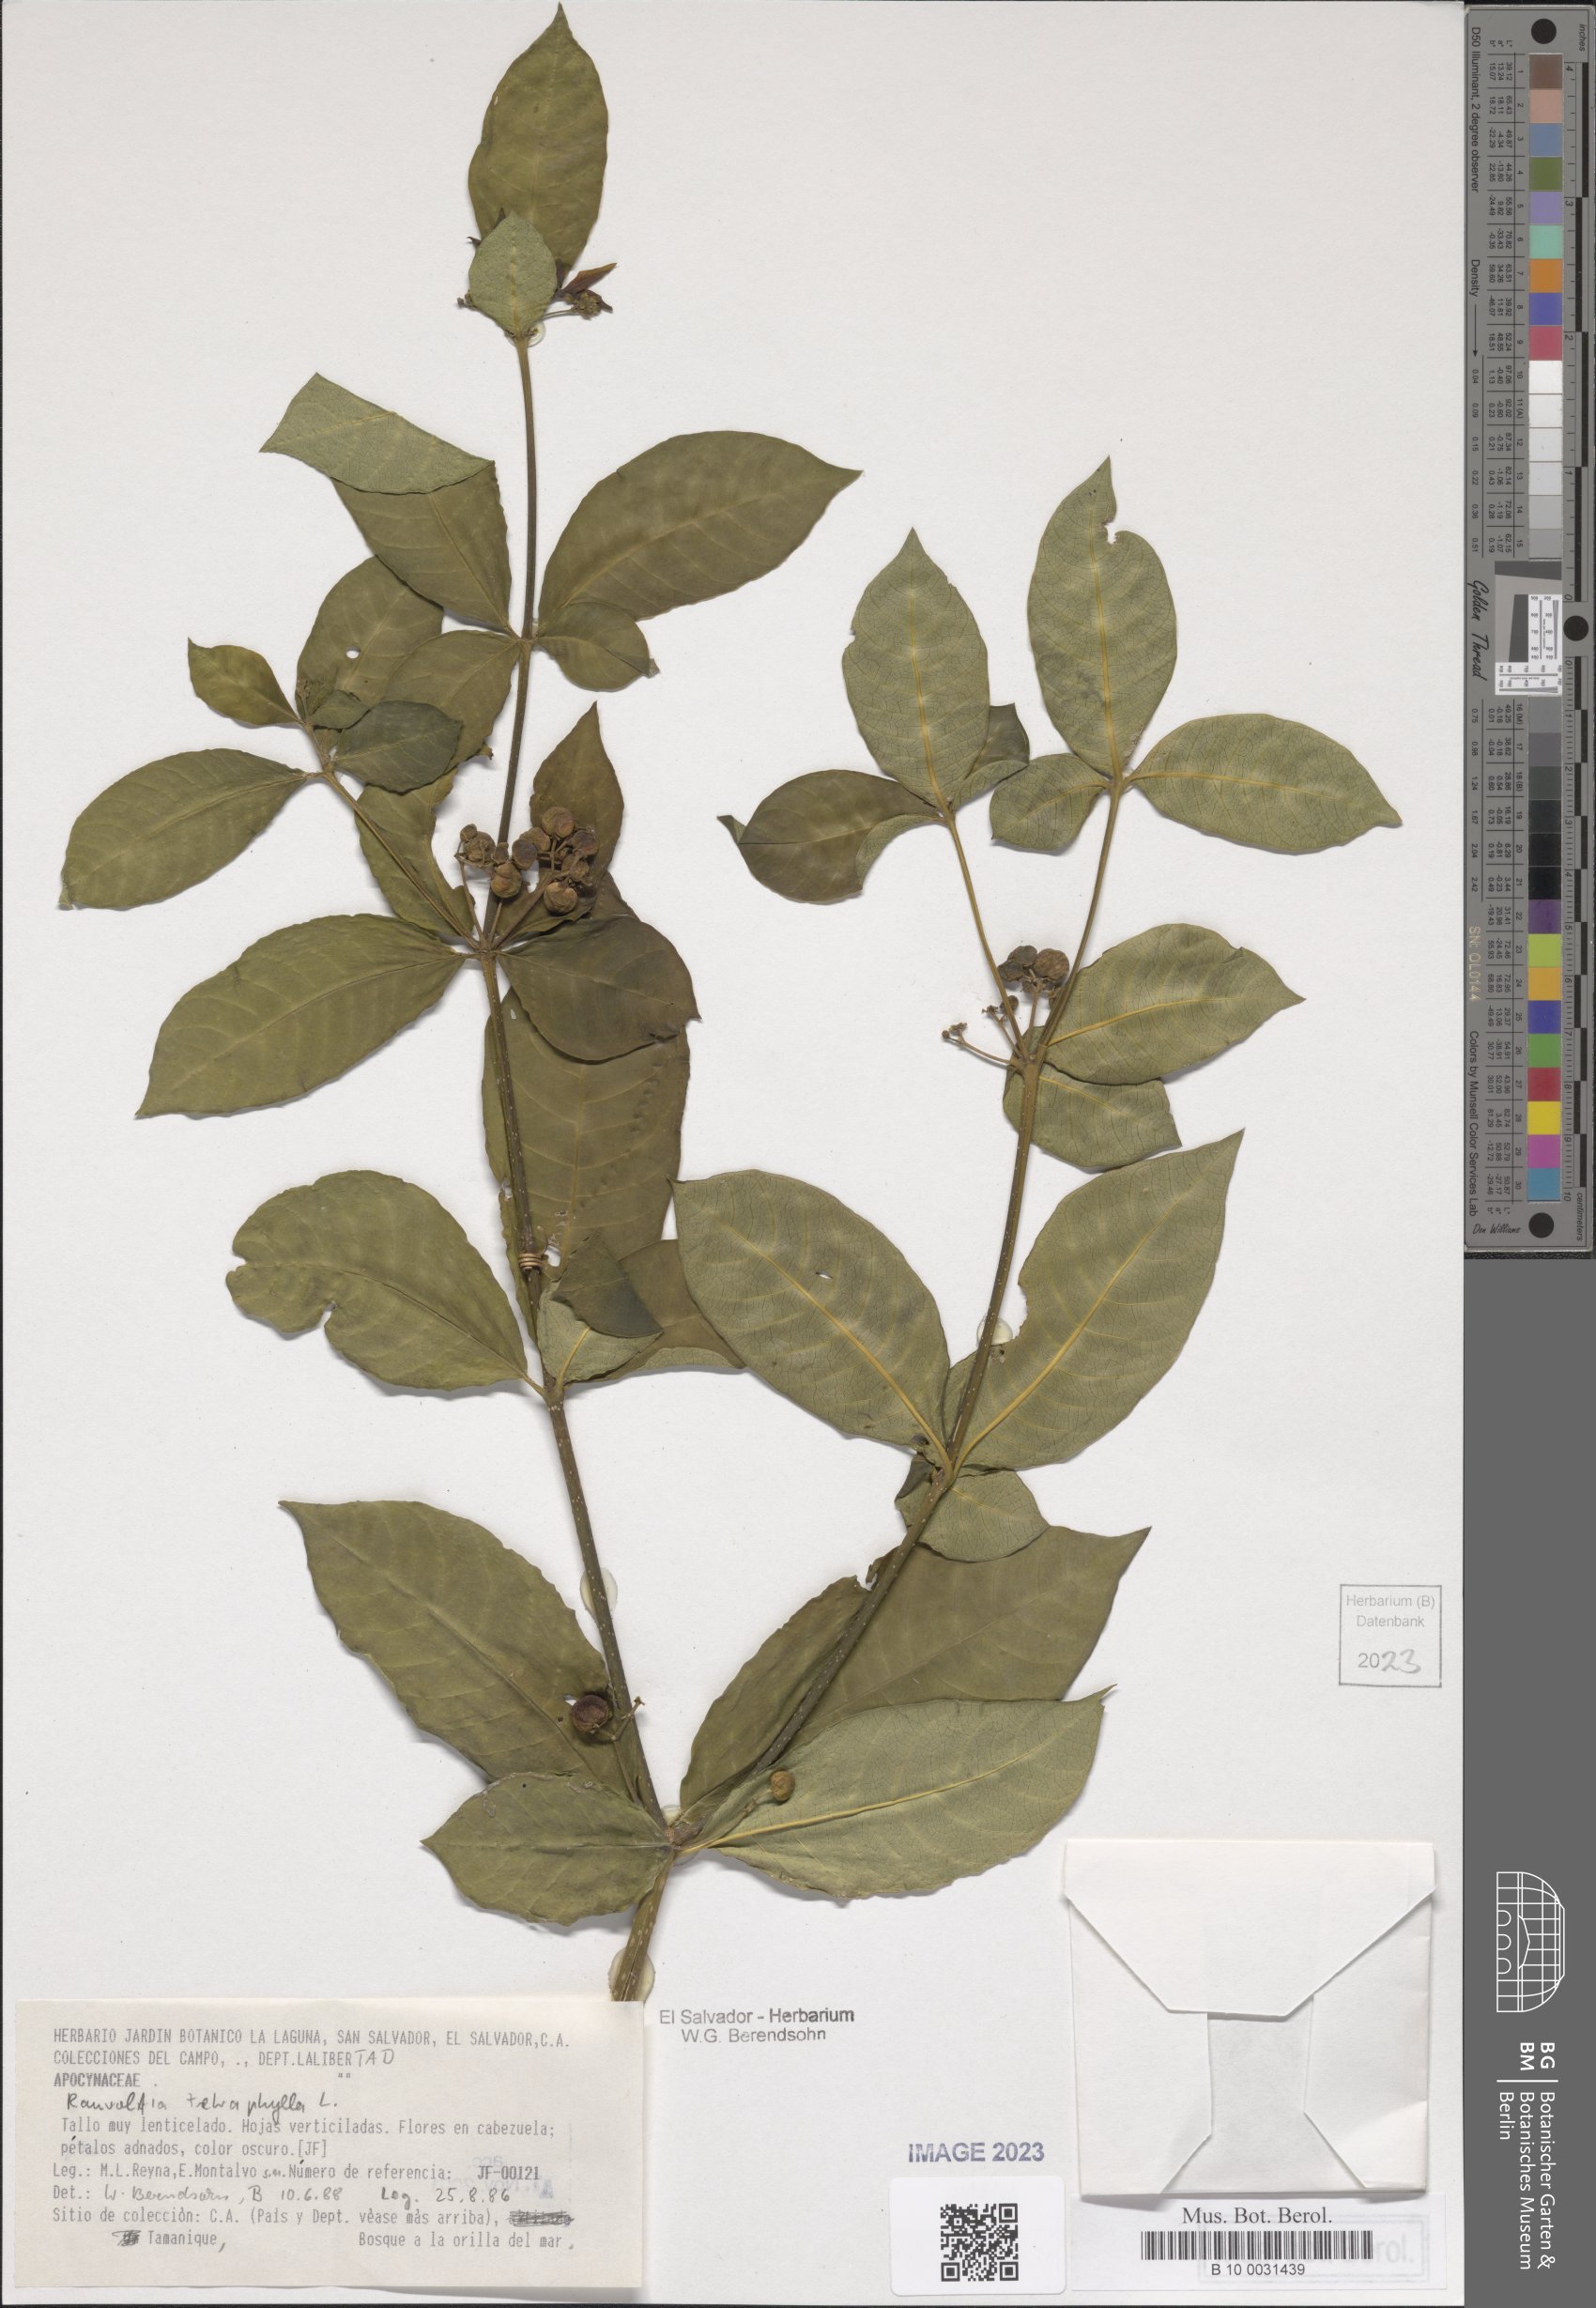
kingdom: Plantae
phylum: Tracheophyta
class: Magnoliopsida
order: Gentianales
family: Apocynaceae
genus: Rauvolfia
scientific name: Rauvolfia tetraphylla
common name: Four-leaf devil-pepper
